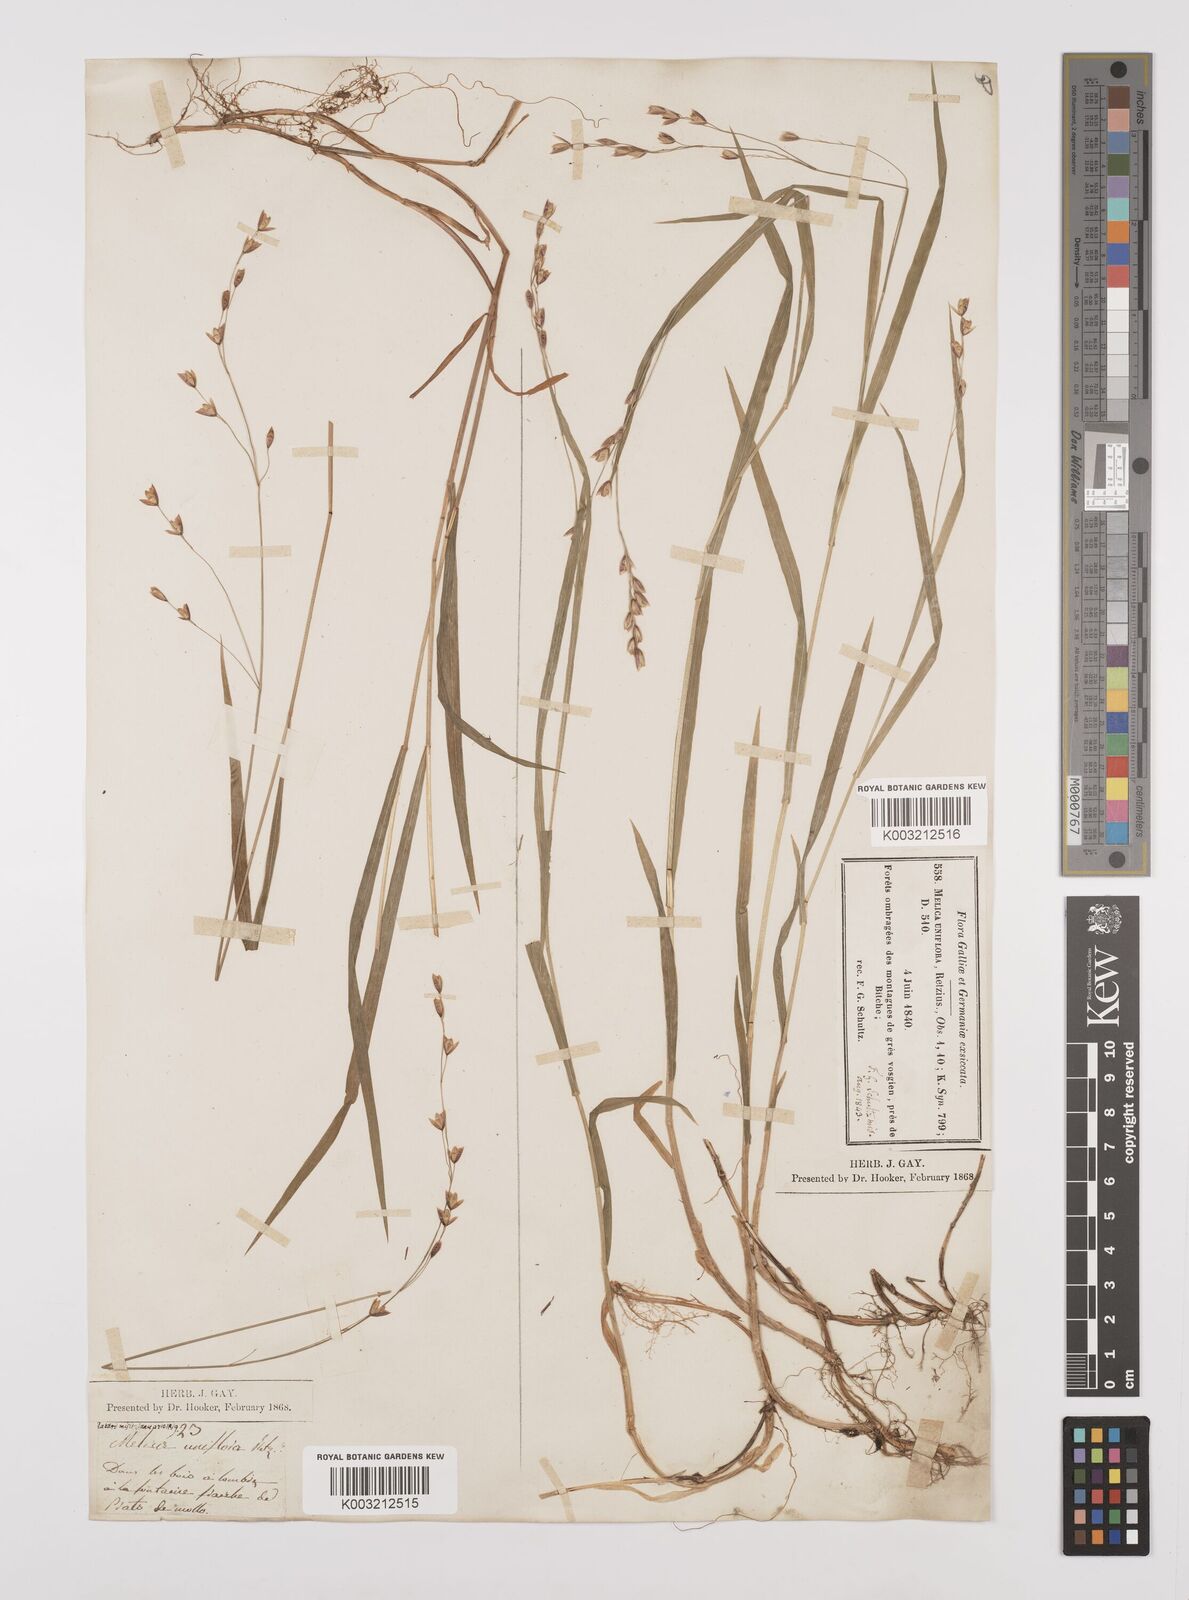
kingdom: Plantae
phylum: Tracheophyta
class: Liliopsida
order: Poales
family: Poaceae
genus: Melica
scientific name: Melica uniflora
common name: Wood melick
